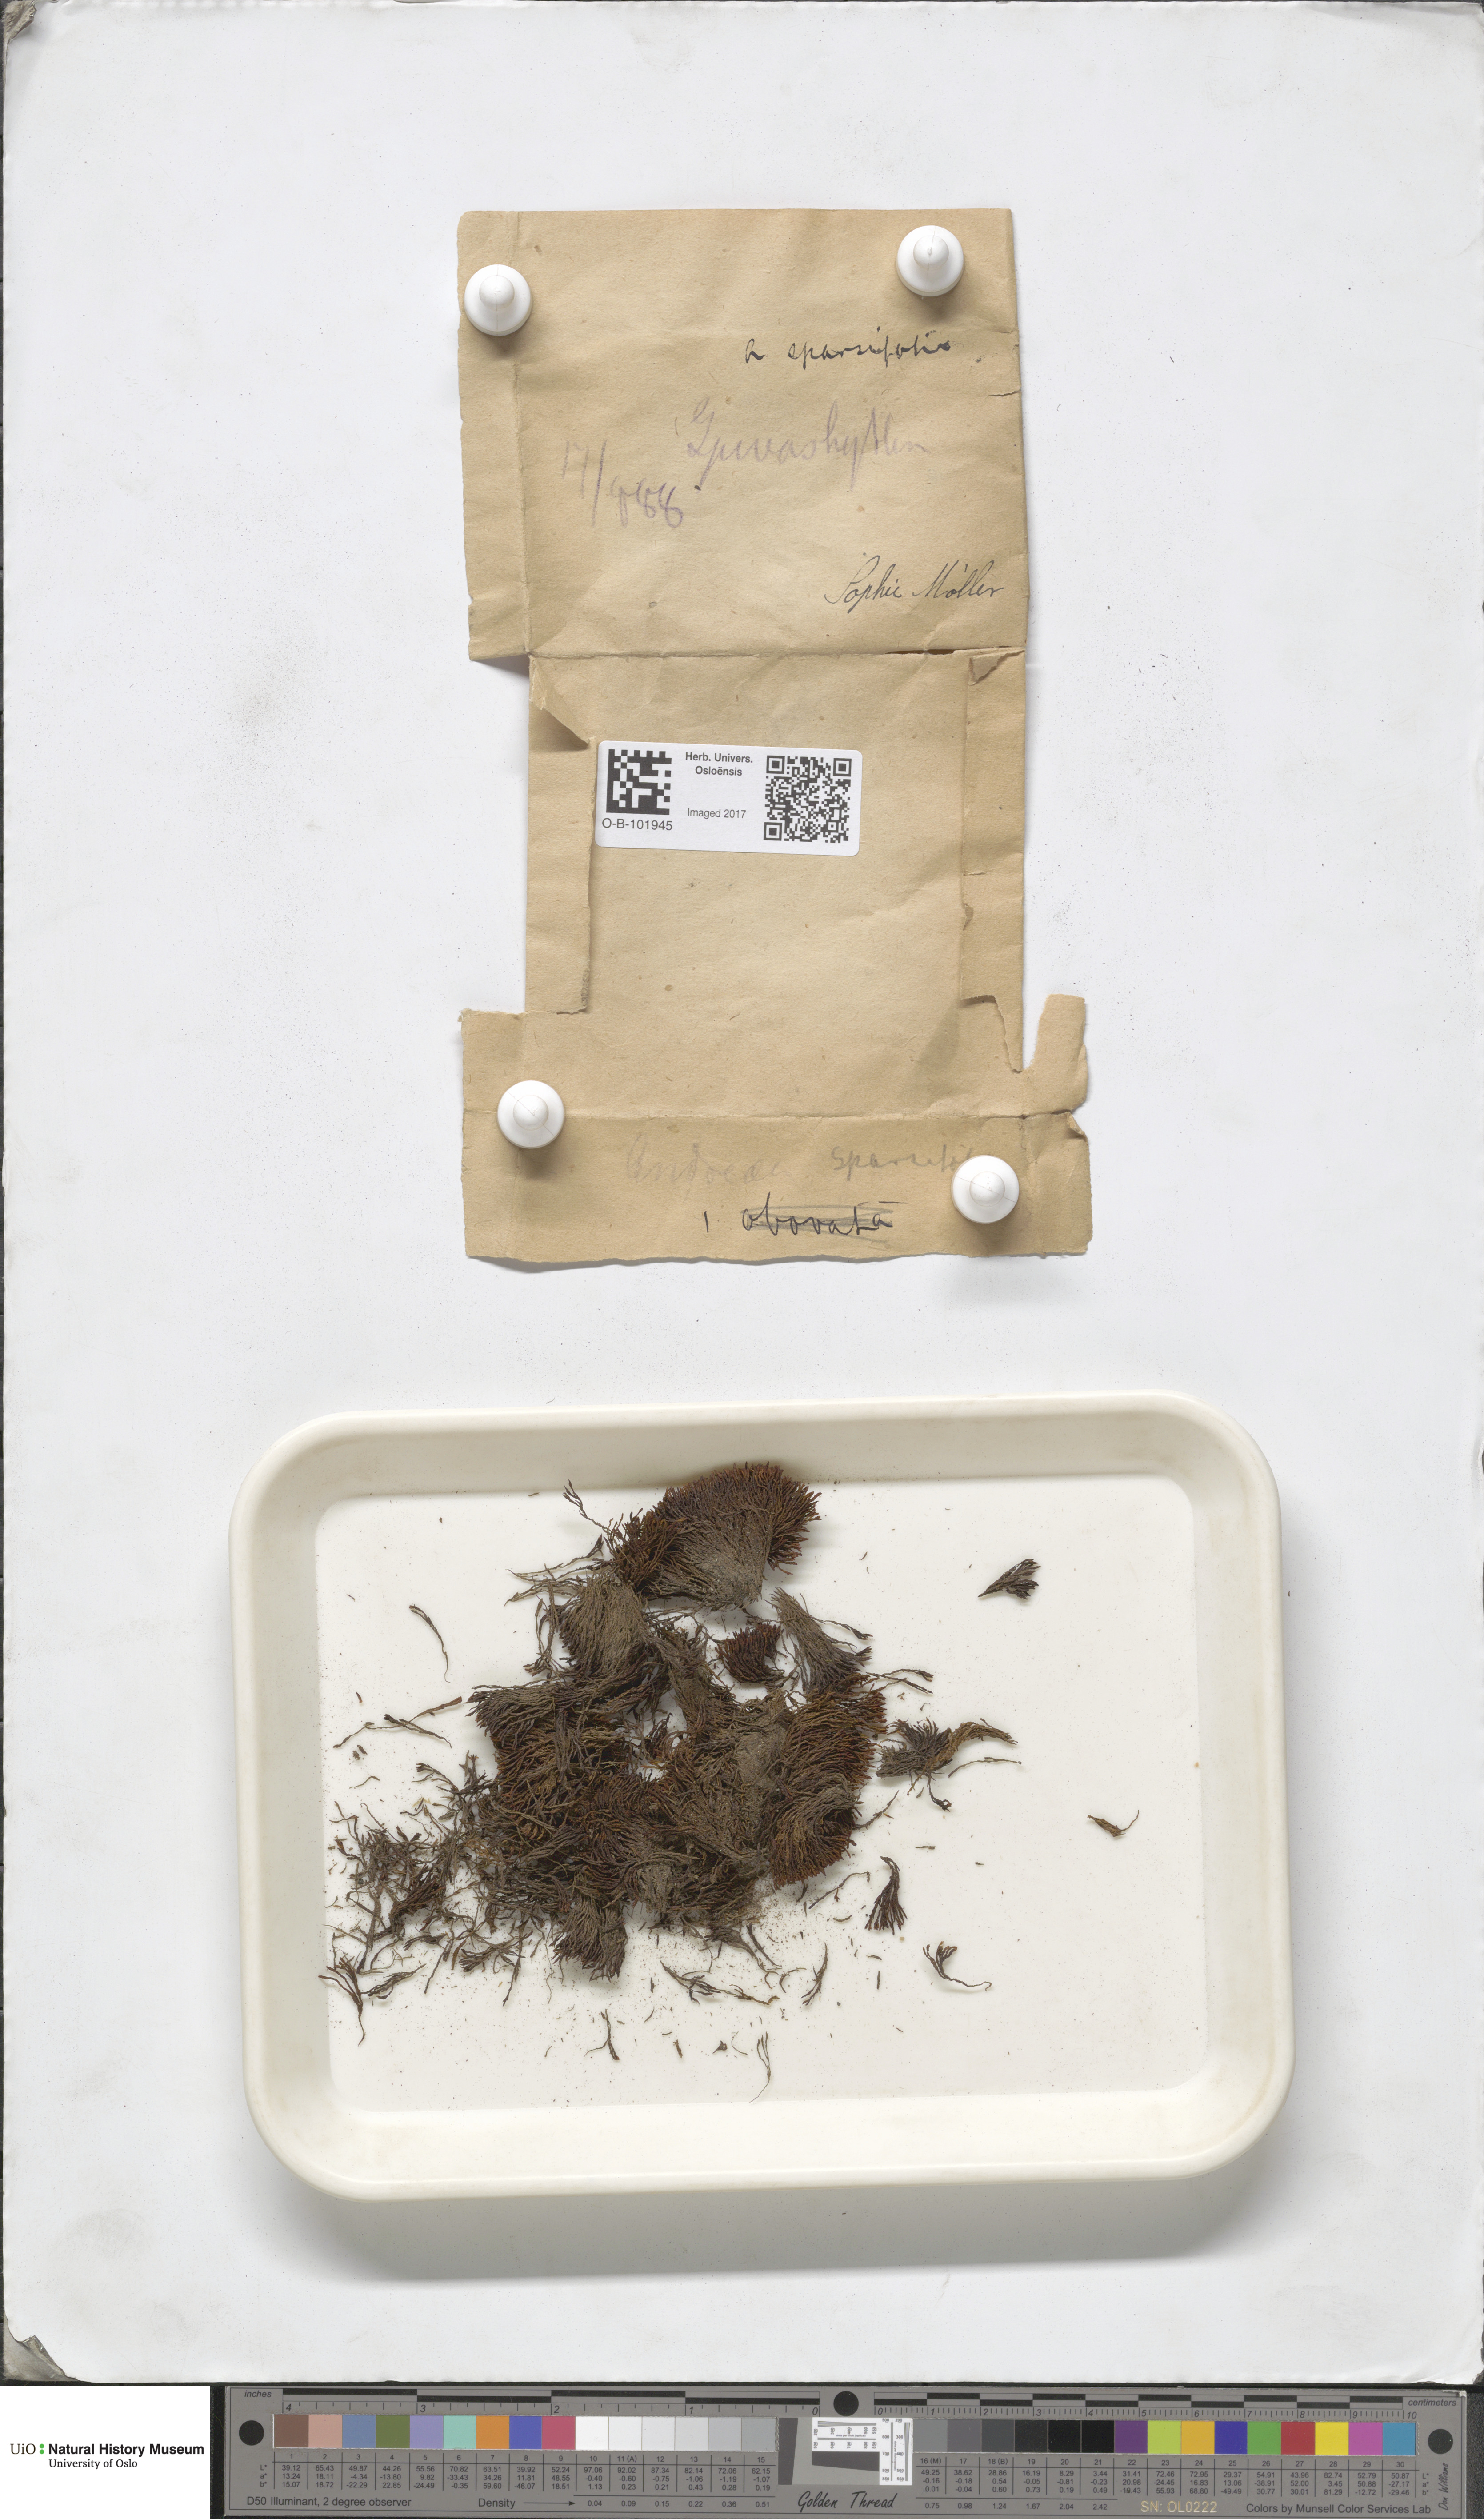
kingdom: Plantae
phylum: Bryophyta
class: Andreaeopsida
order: Andreaeales
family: Andreaeaceae
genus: Andreaea
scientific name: Andreaea rupestris
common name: Black rock moss
